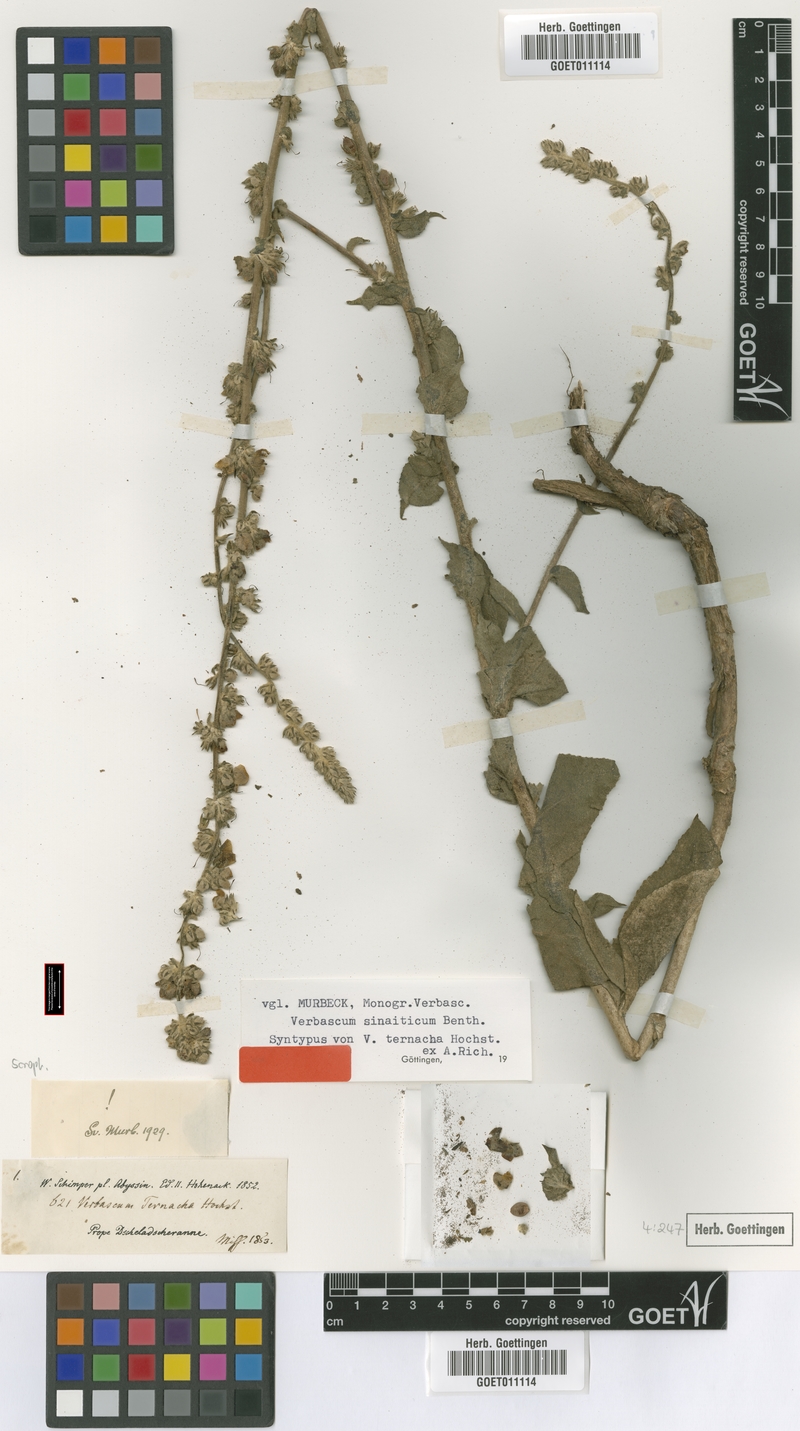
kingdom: Plantae
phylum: Tracheophyta
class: Magnoliopsida
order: Lamiales
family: Scrophulariaceae
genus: Verbascum
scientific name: Verbascum sinaiticum
